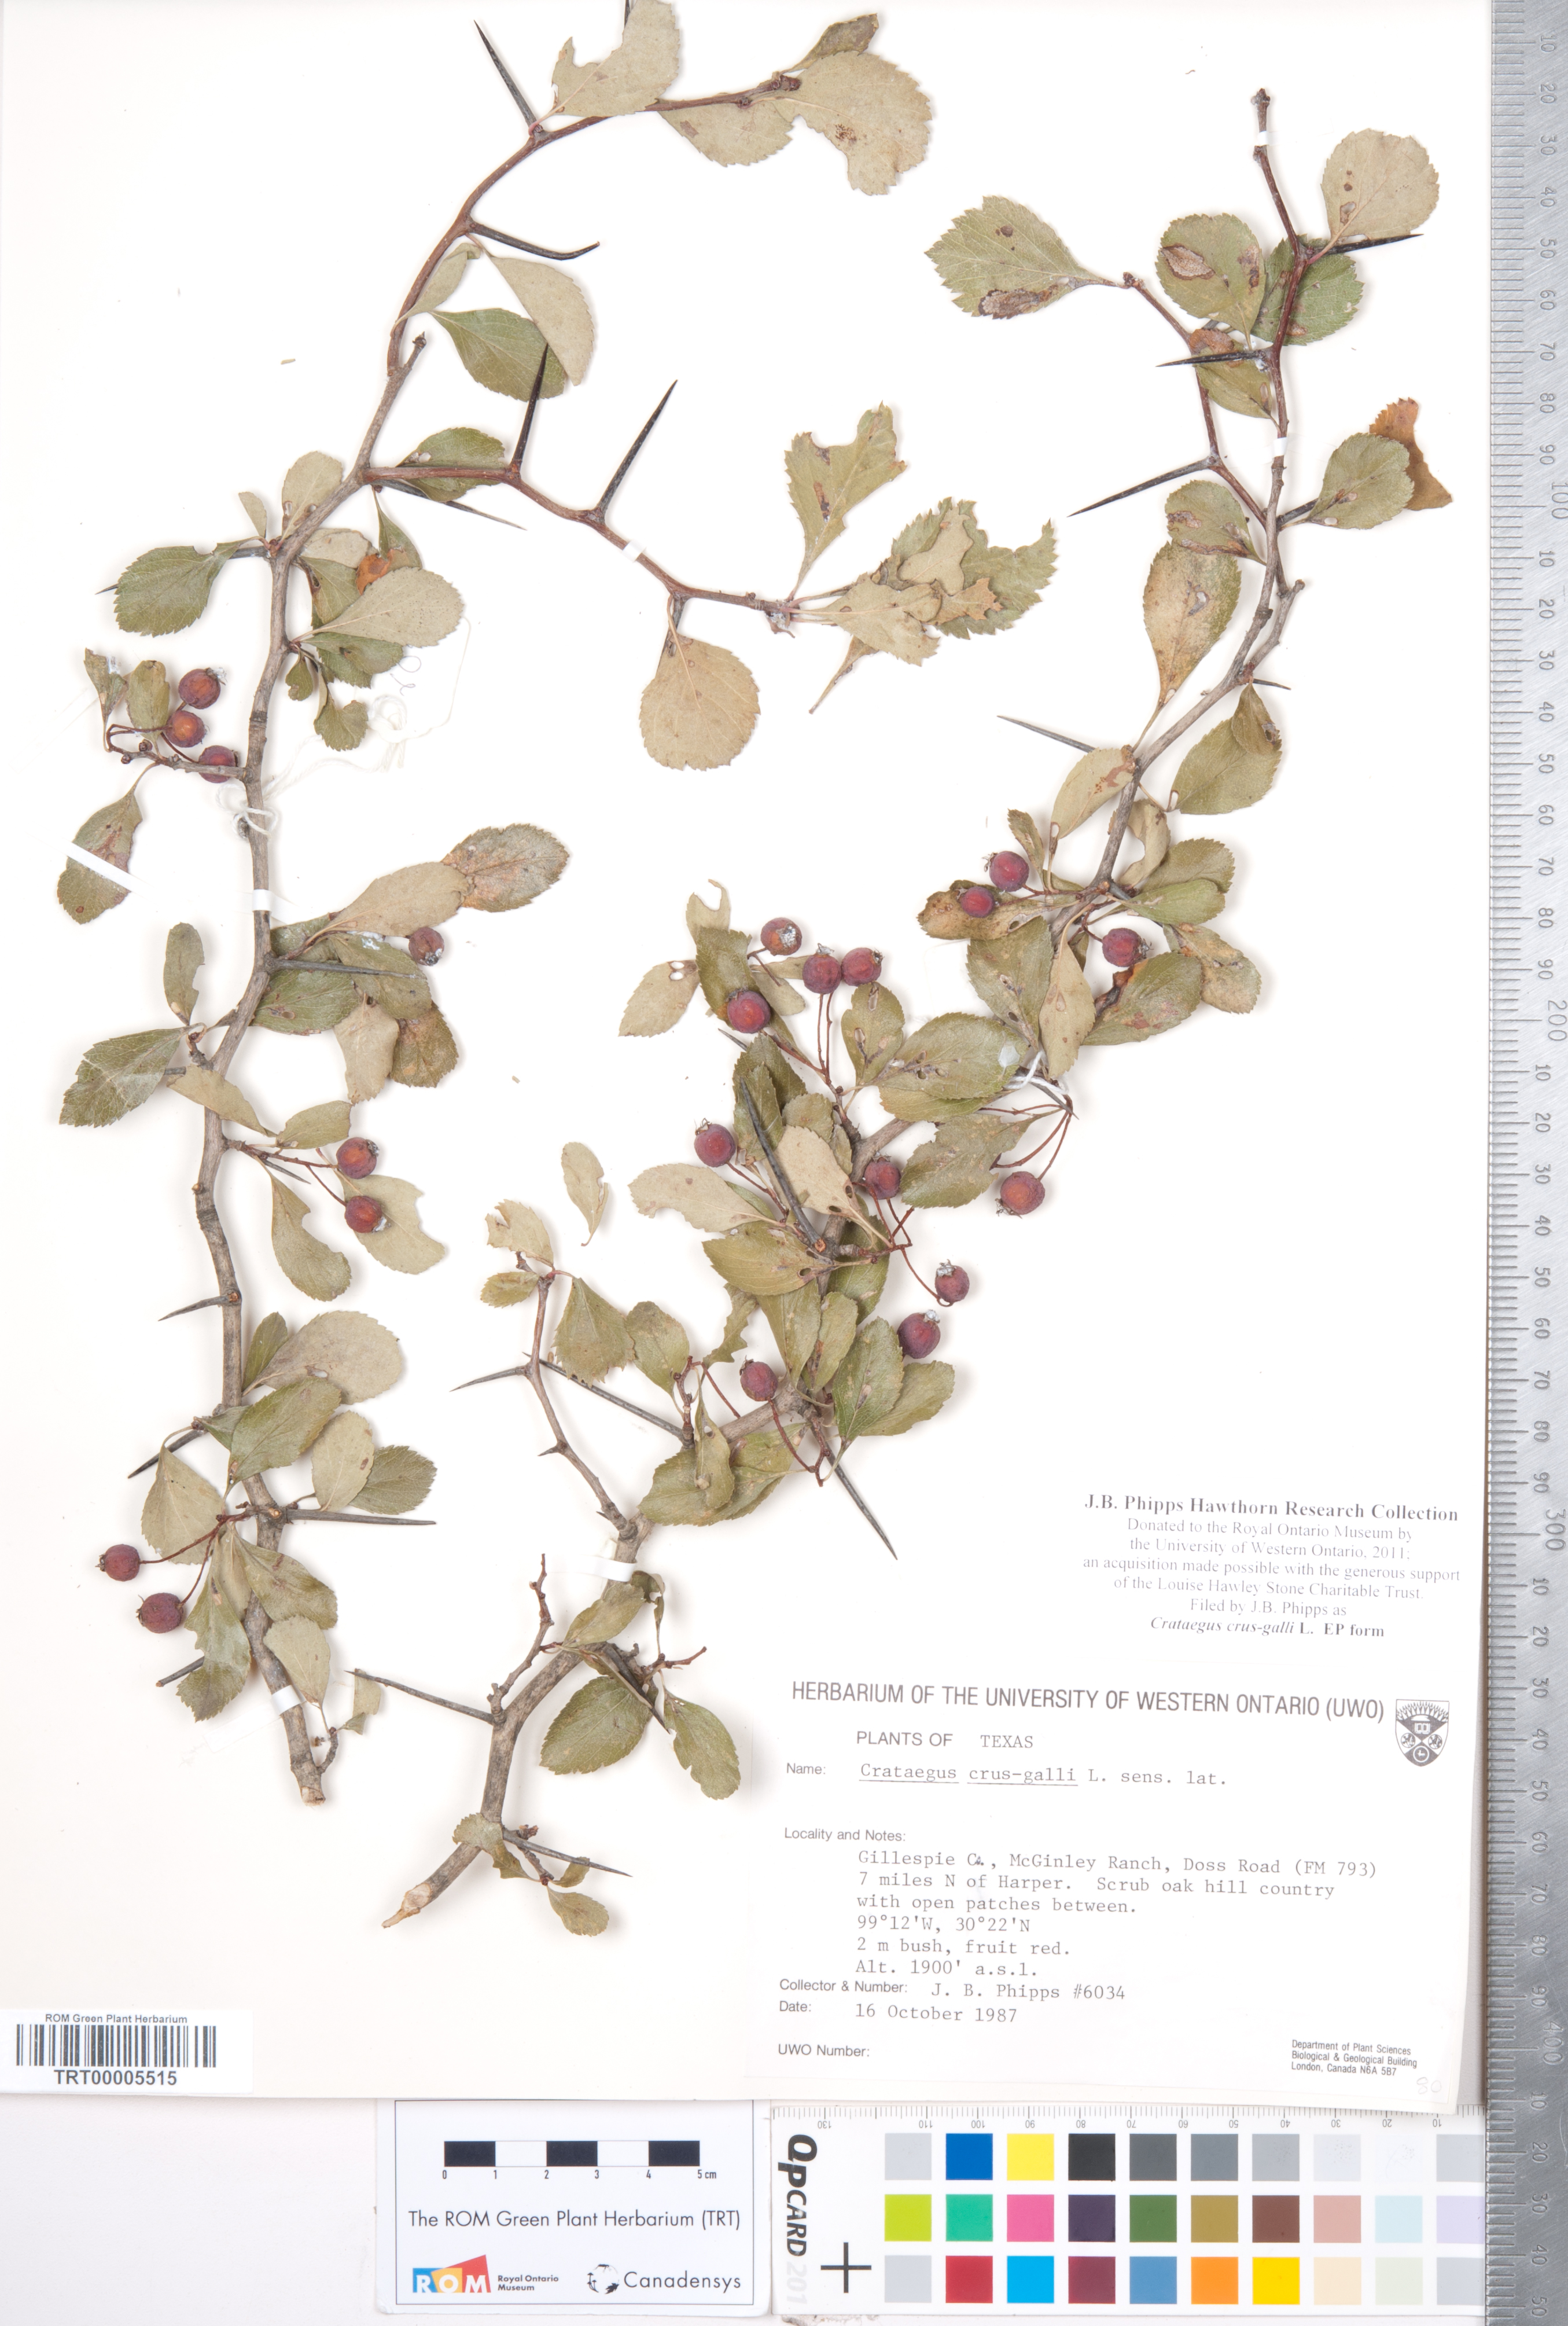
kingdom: Plantae
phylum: Tracheophyta
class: Magnoliopsida
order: Rosales
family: Rosaceae
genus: Crataegus
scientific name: Crataegus crus-galli
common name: Cockspurthorn
